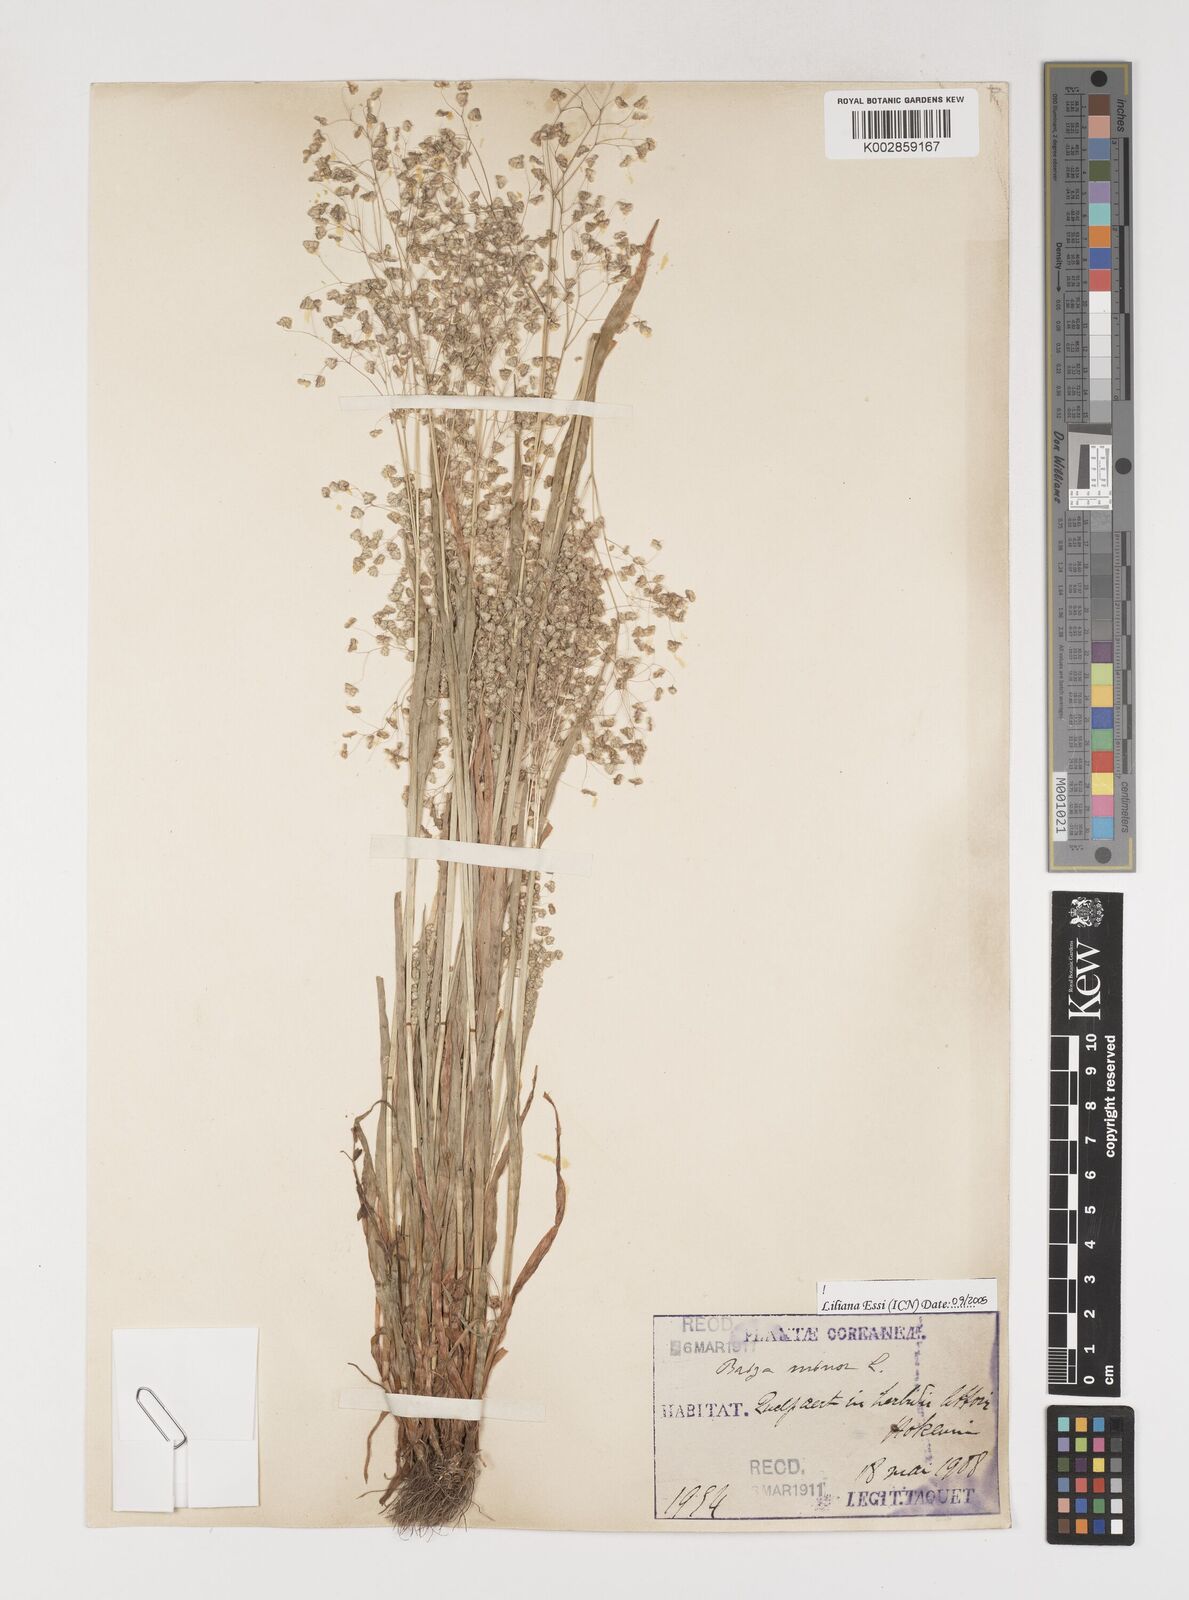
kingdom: Plantae
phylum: Tracheophyta
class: Liliopsida
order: Poales
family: Poaceae
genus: Briza
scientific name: Briza minor
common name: Lesser quaking-grass
